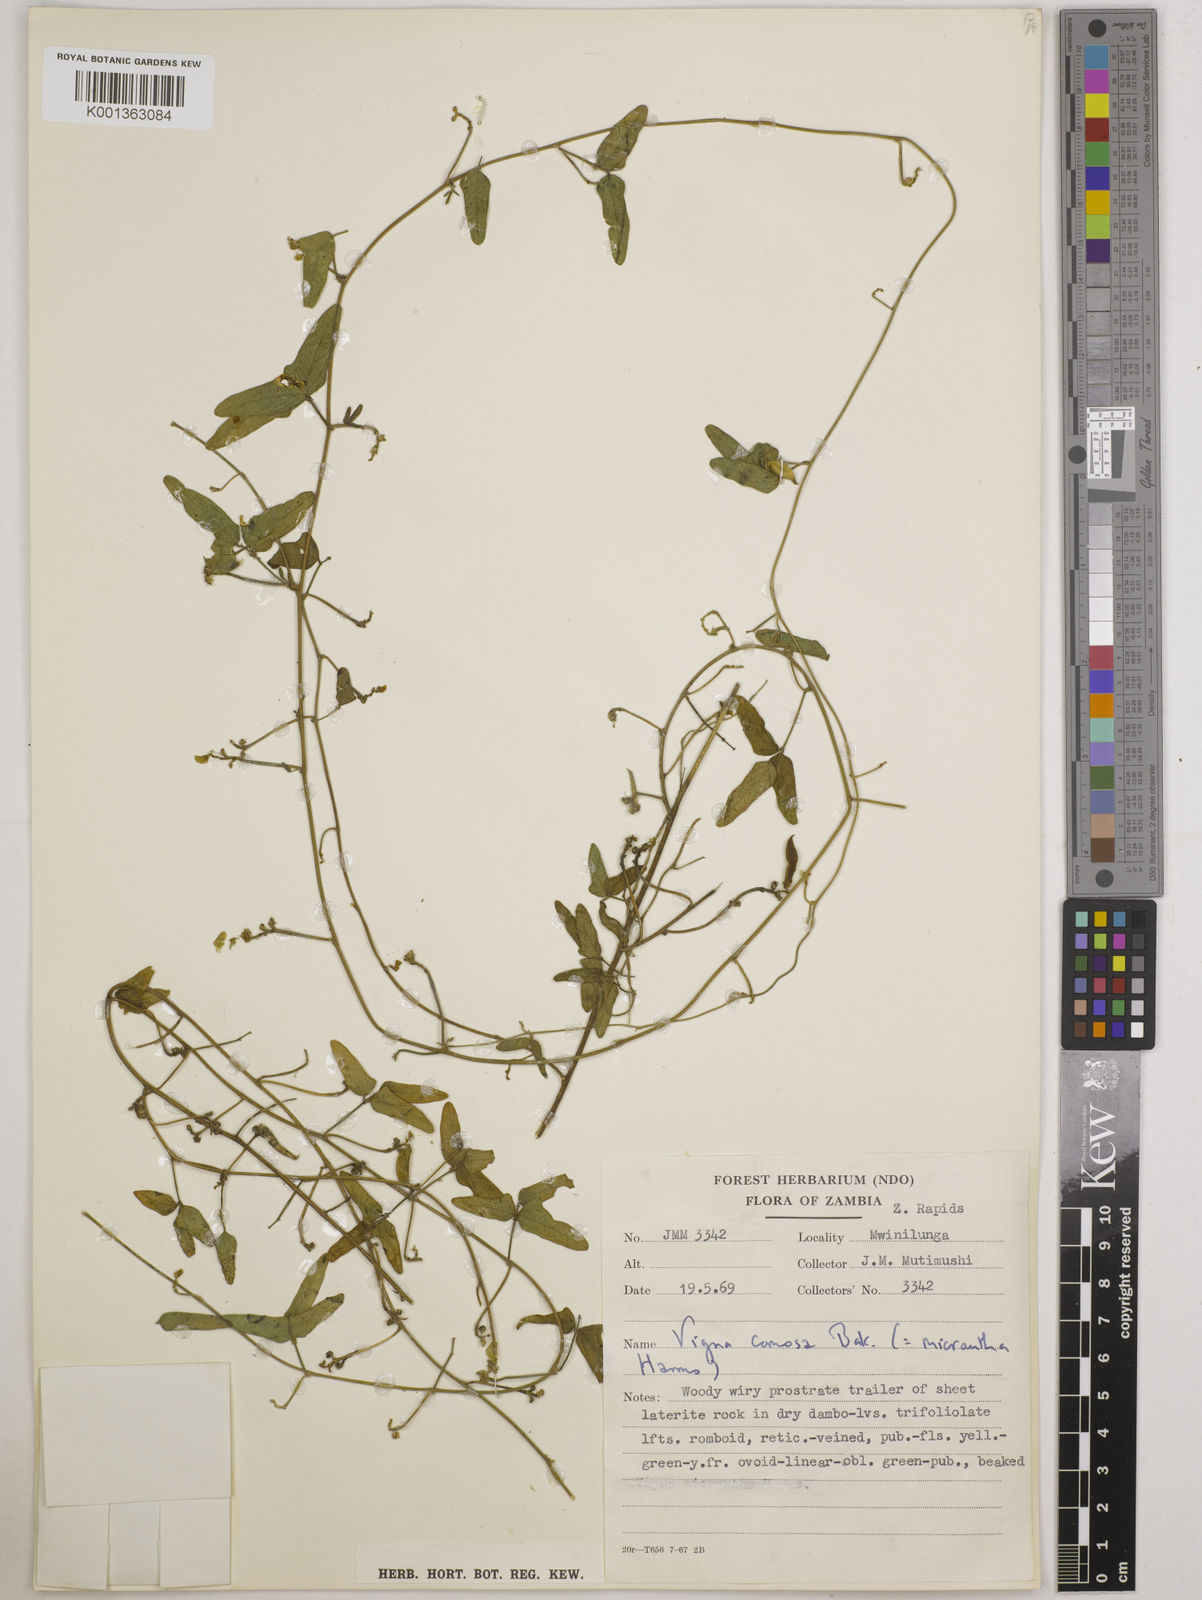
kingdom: Plantae
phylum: Tracheophyta
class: Magnoliopsida
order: Fabales
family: Fabaceae
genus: Vigna
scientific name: Vigna comosa
